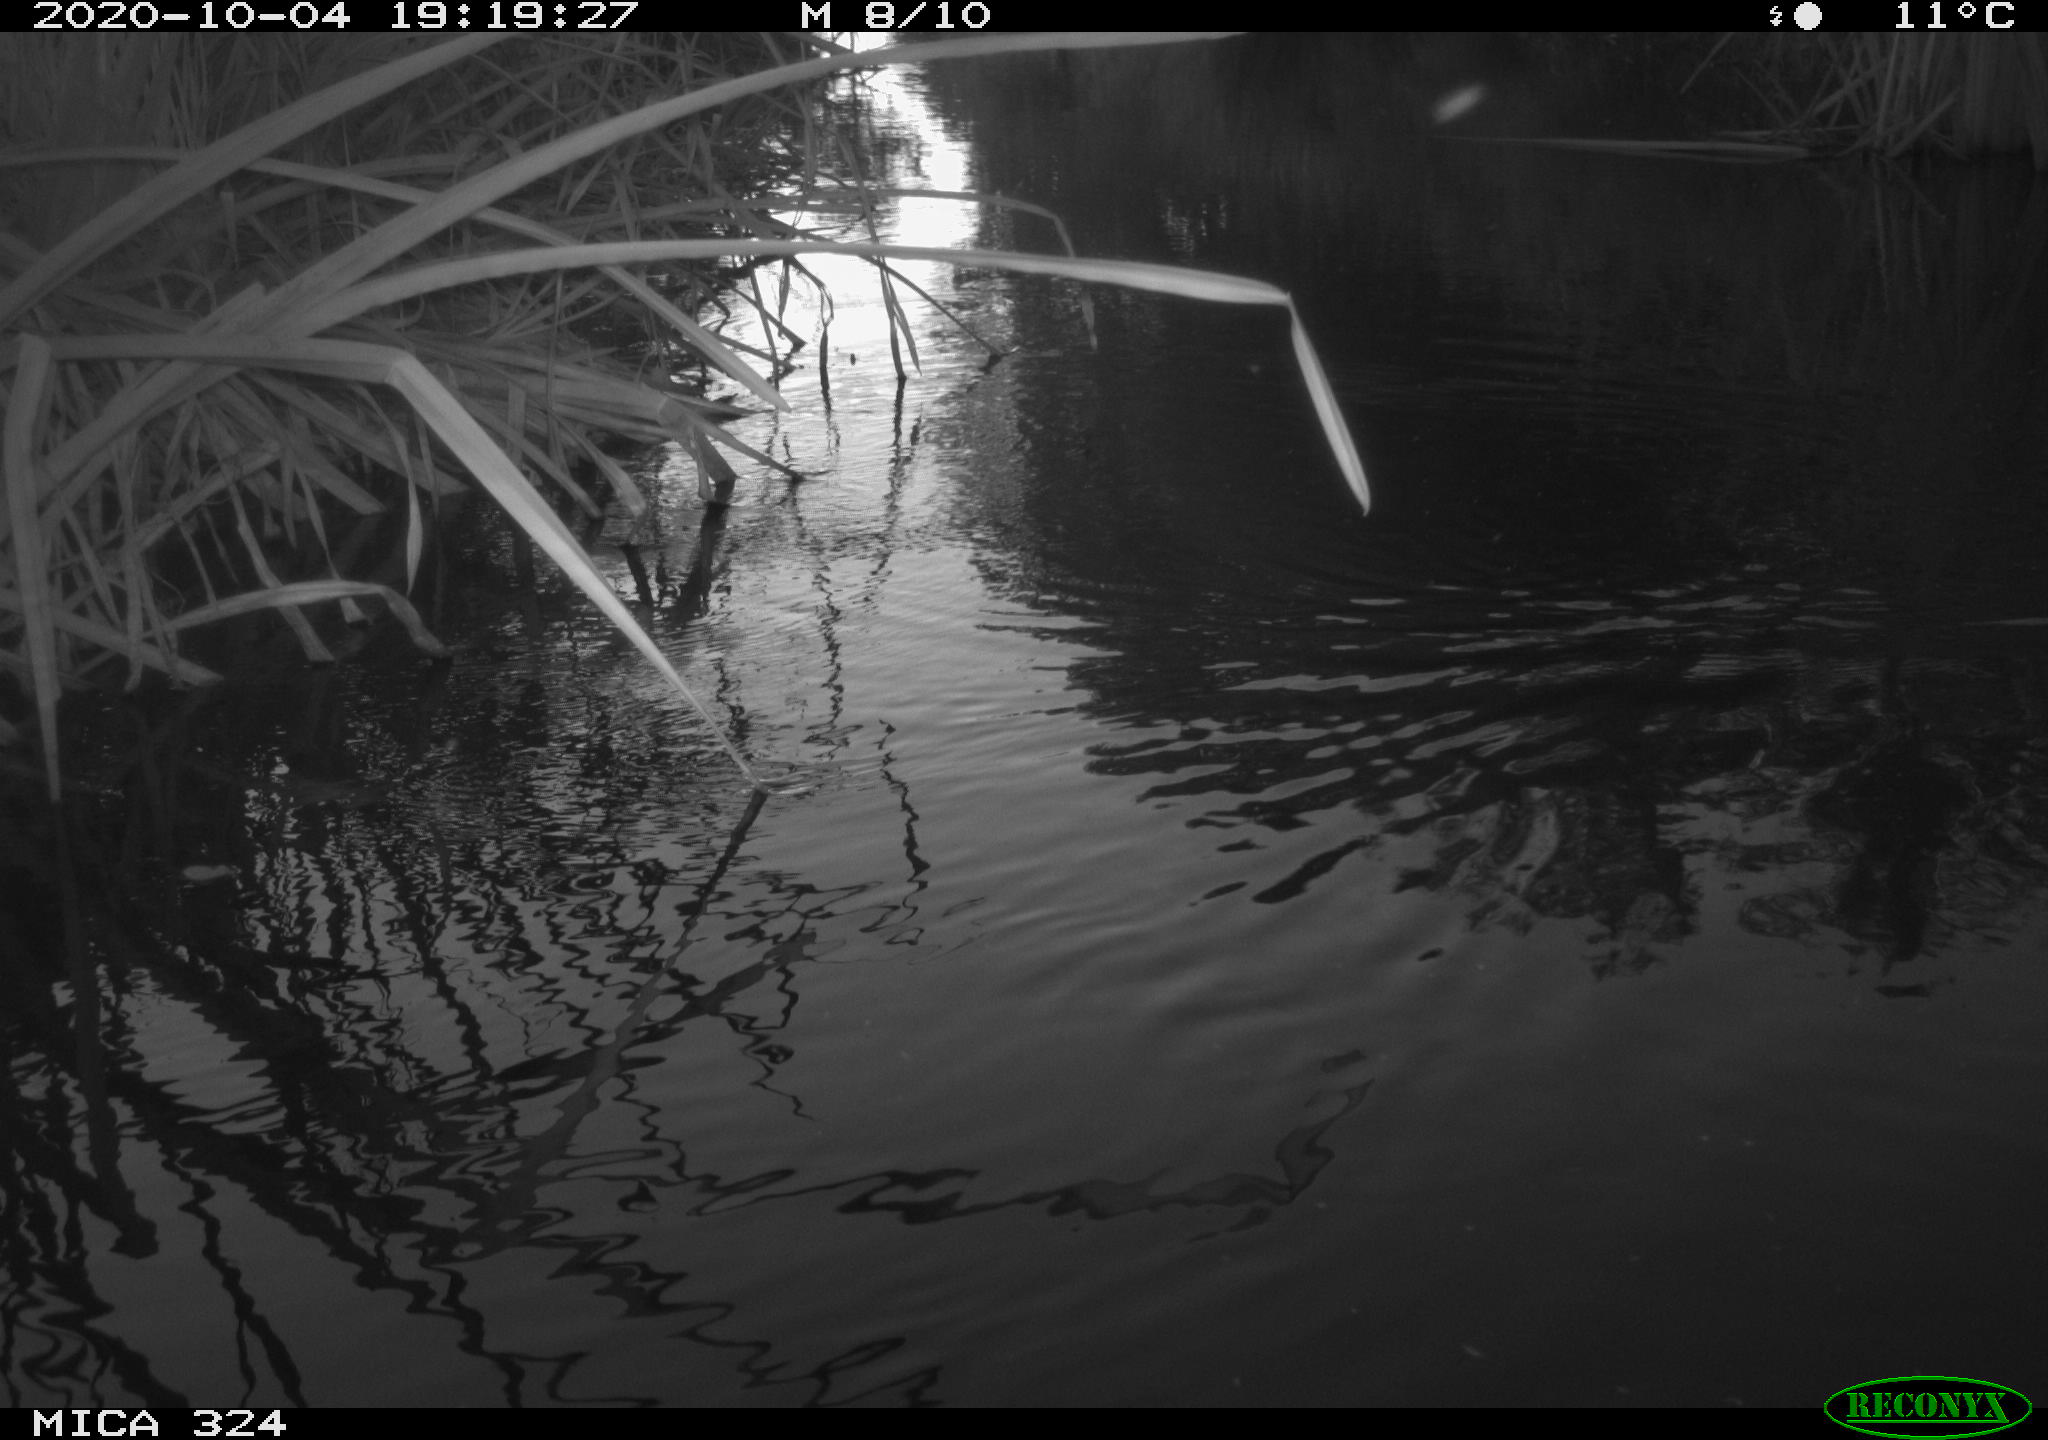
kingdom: Animalia
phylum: Chordata
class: Aves
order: Gruiformes
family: Rallidae
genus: Gallinula
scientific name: Gallinula chloropus
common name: Common moorhen
